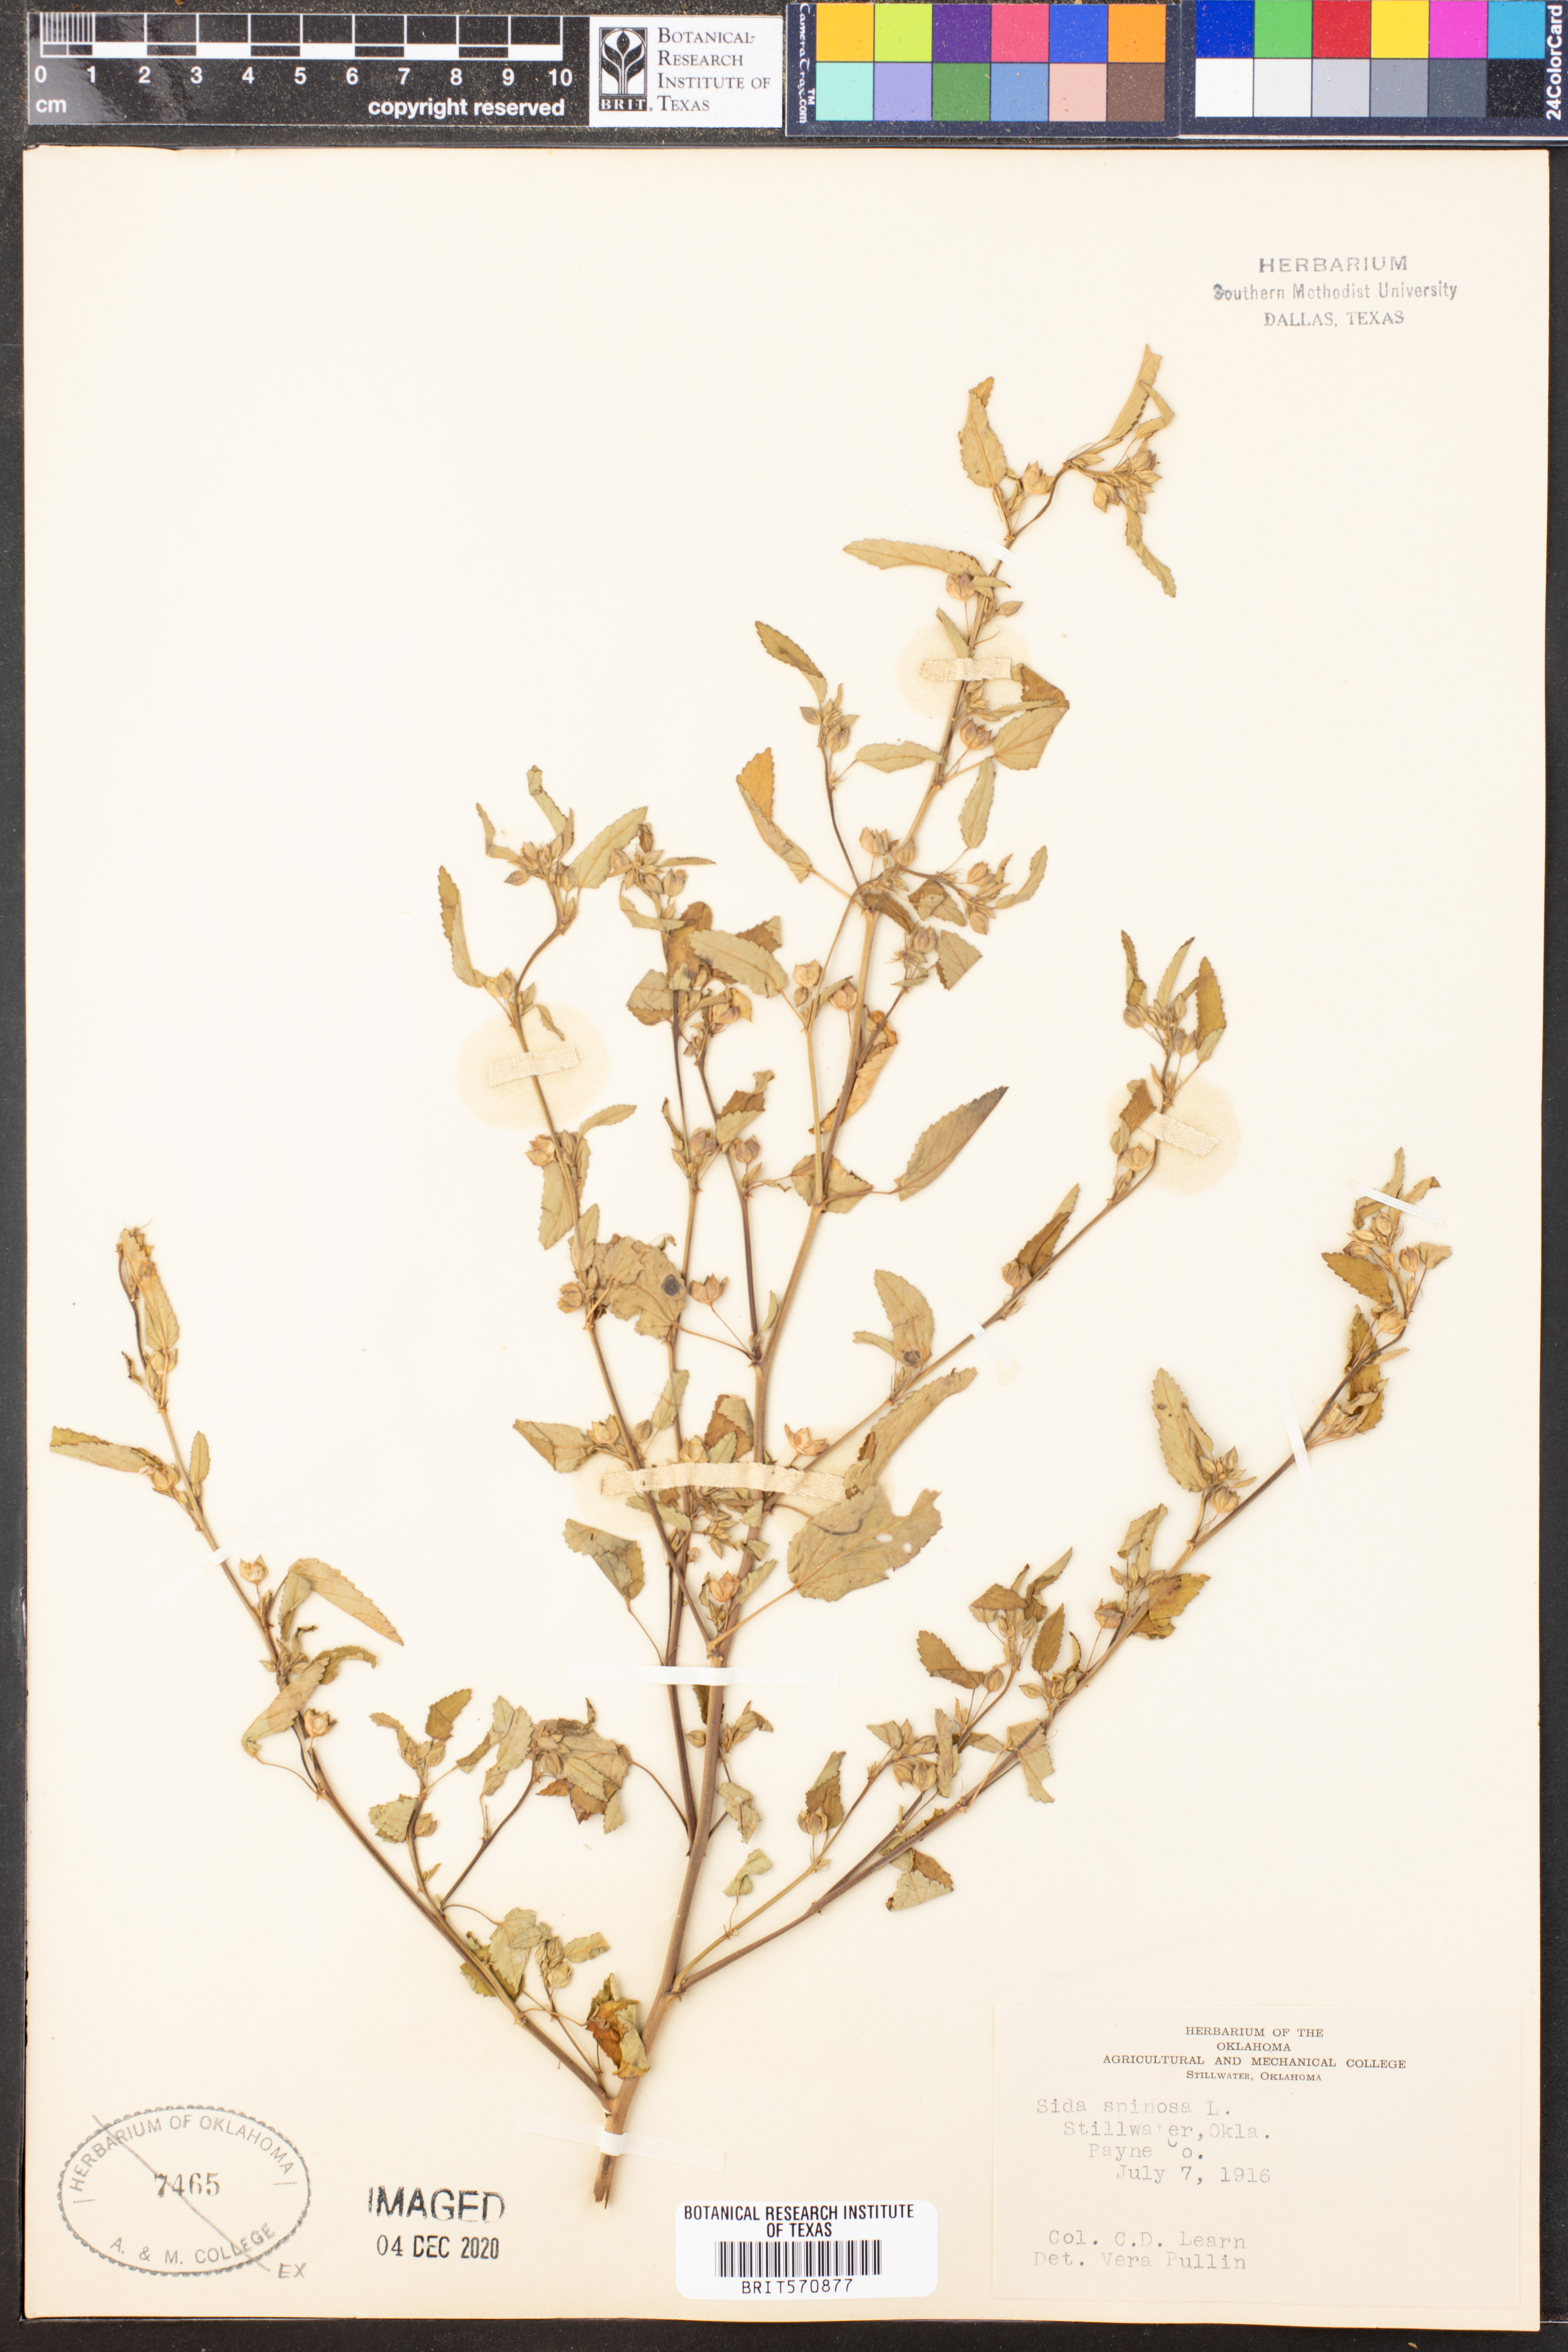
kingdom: Plantae
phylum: Tracheophyta
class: Magnoliopsida
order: Malvales
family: Malvaceae
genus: Sida
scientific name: Sida spinosa
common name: Prickly fanpetals
